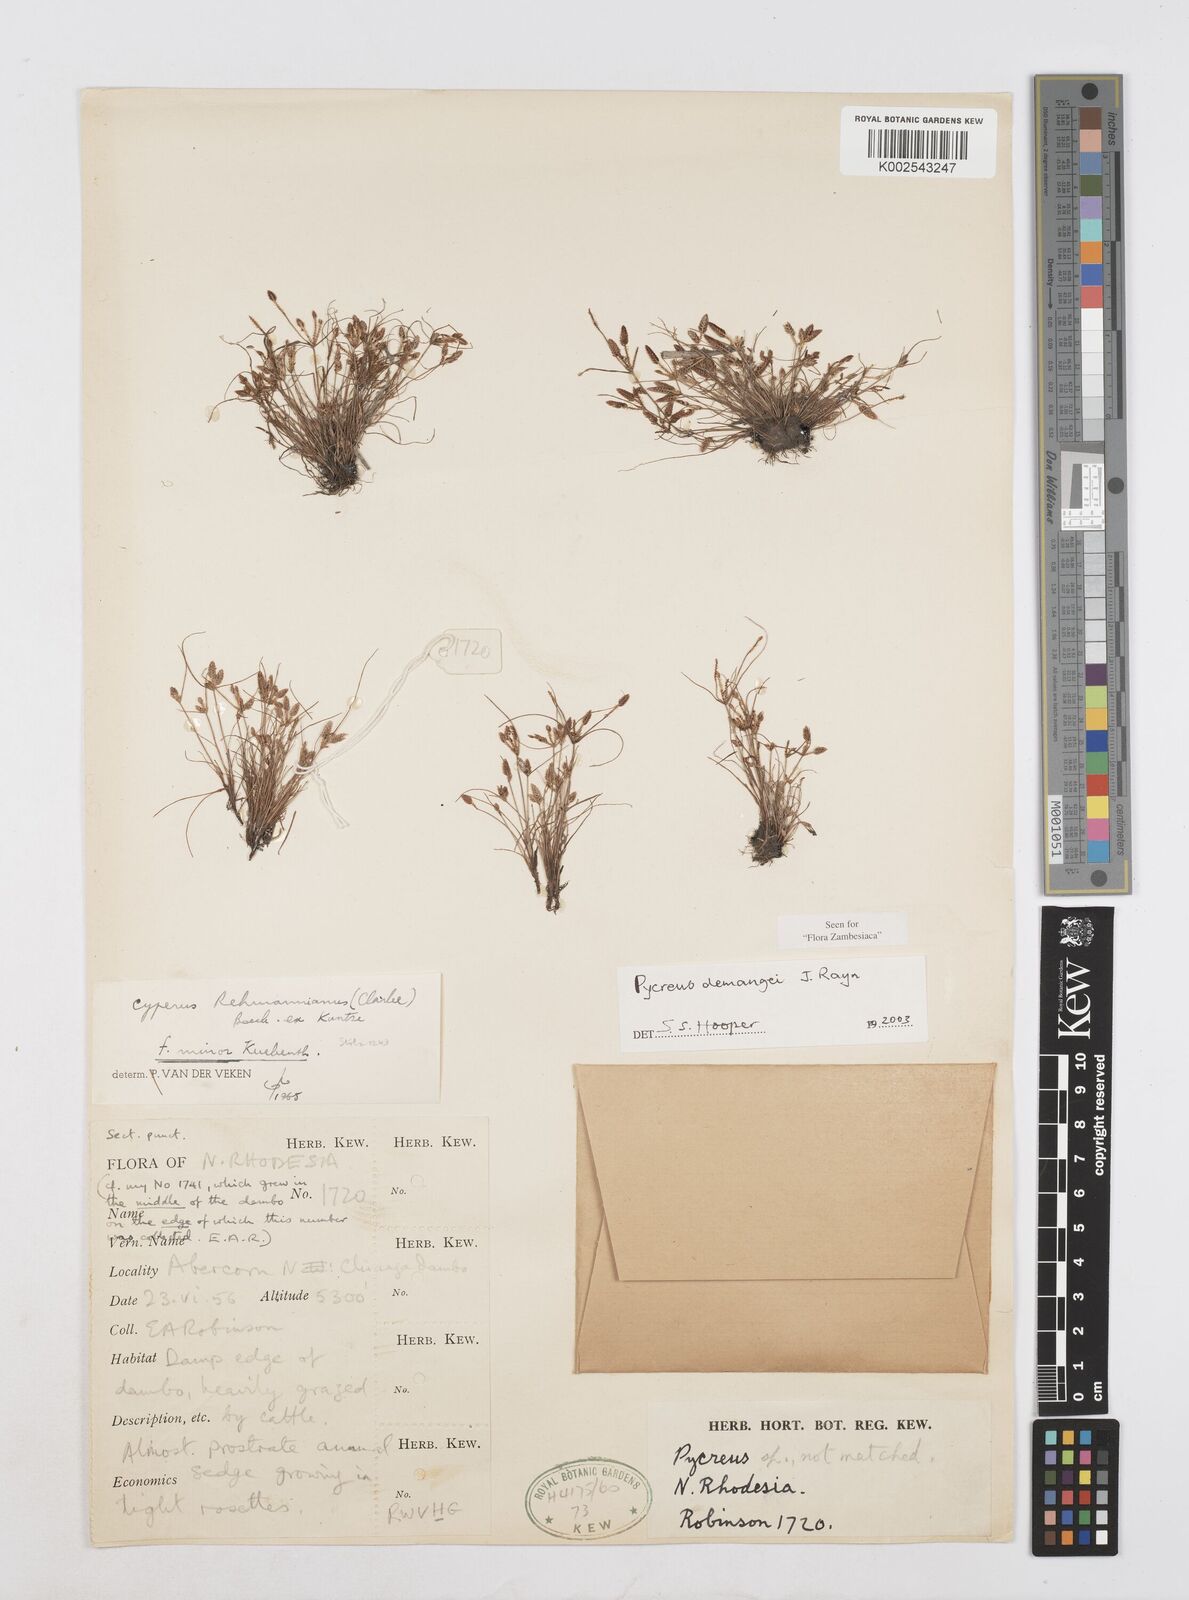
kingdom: Plantae
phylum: Tracheophyta
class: Liliopsida
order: Poales
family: Cyperaceae
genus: Cyperus
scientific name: Cyperus demangei
